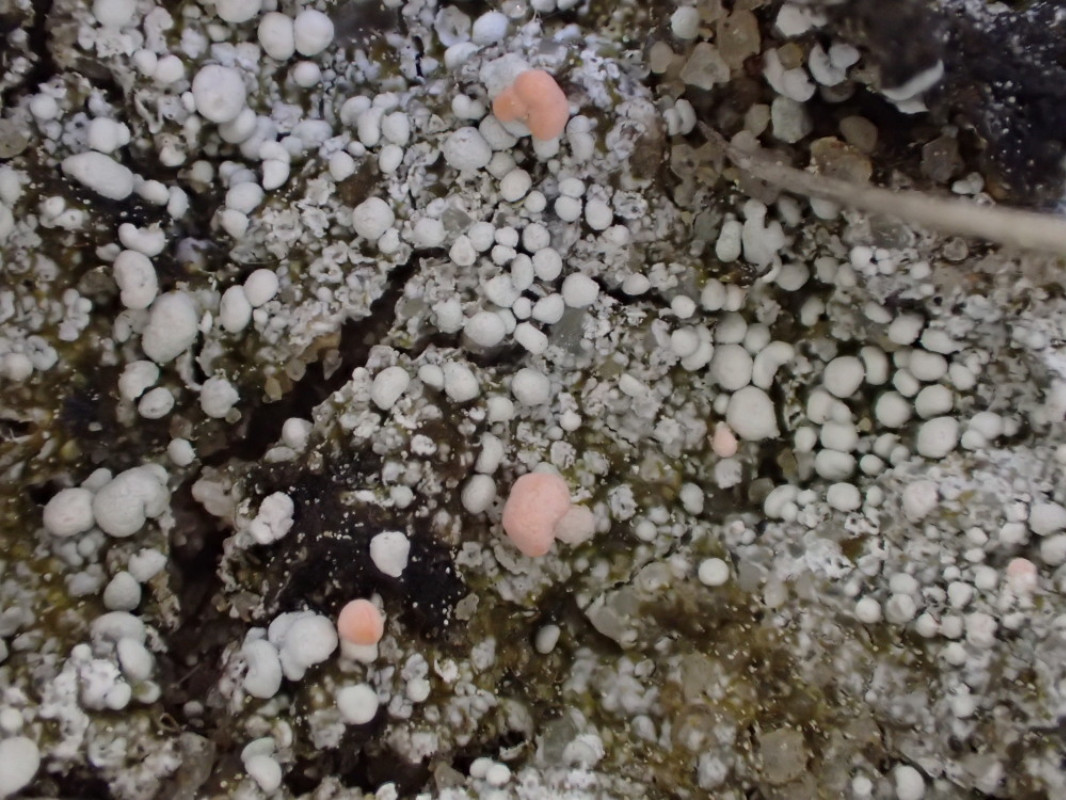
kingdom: Fungi
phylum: Ascomycota
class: Lecanoromycetes
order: Pertusariales
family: Icmadophilaceae
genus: Dibaeis
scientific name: Dibaeis baeomyces
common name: rosenrød stilav
